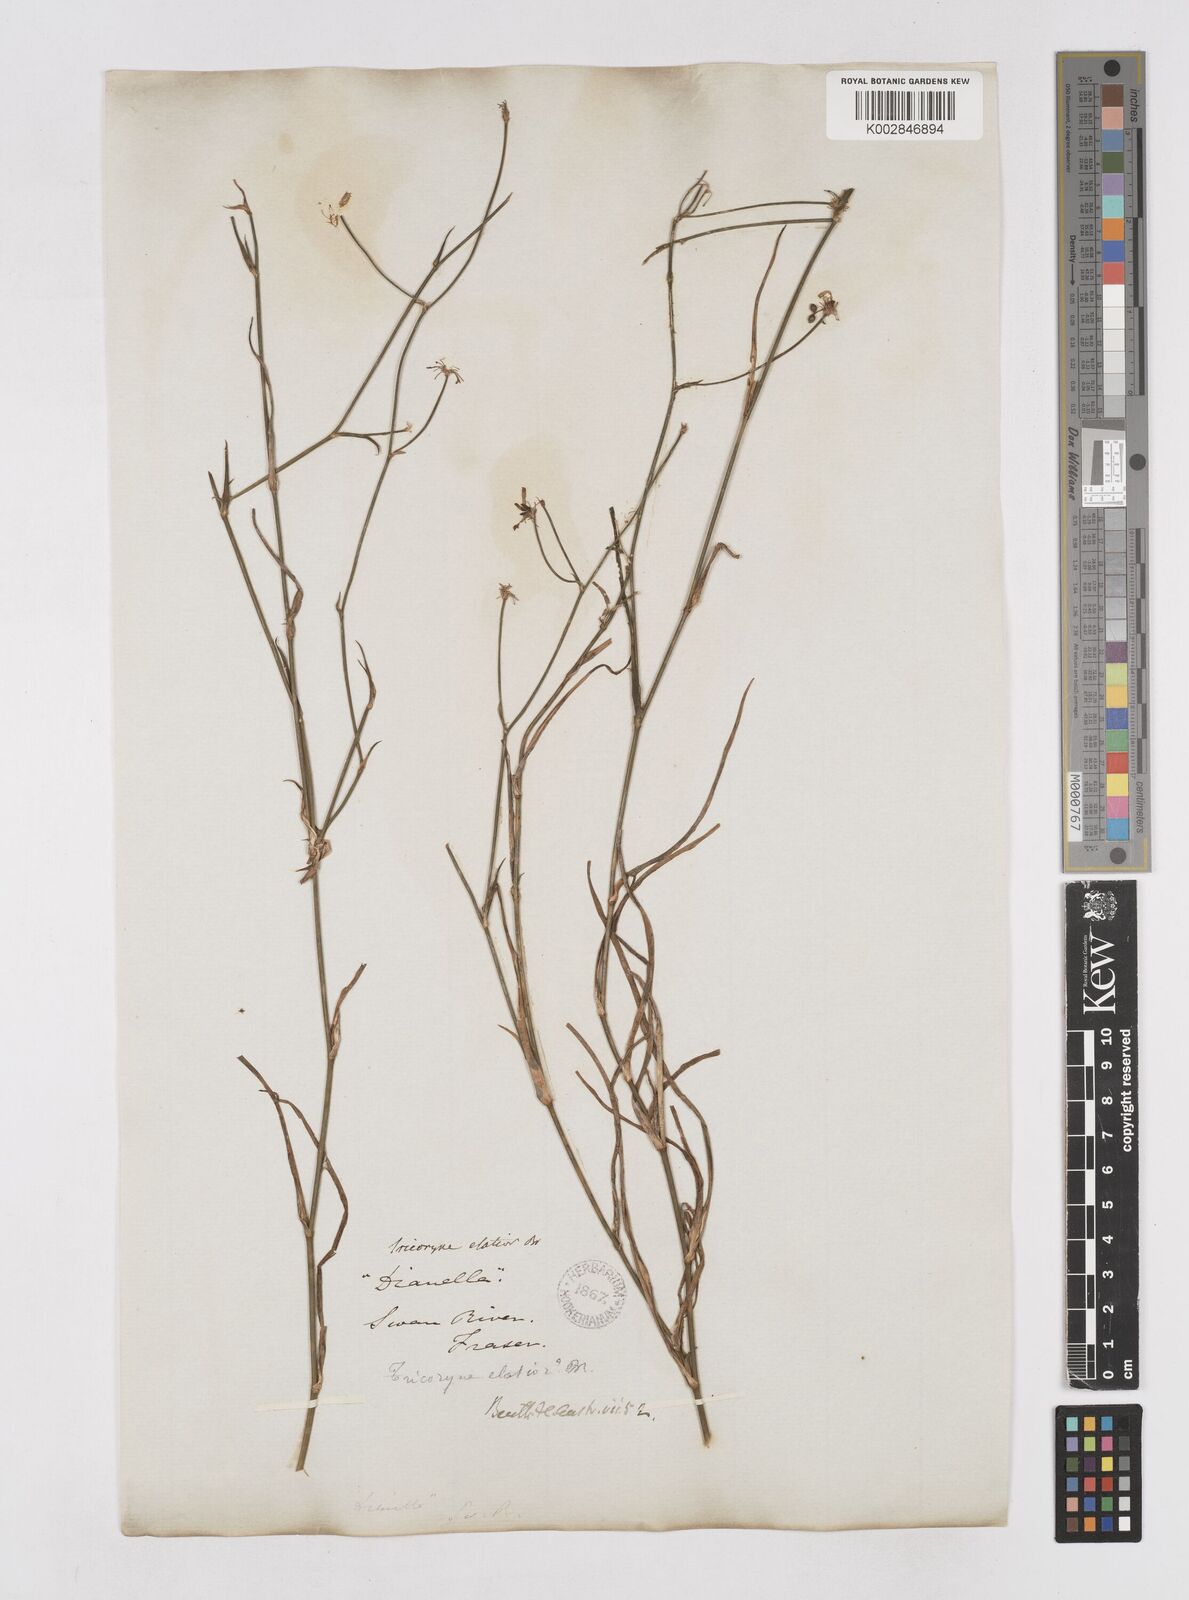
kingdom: Plantae
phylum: Tracheophyta
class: Liliopsida
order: Asparagales
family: Asphodelaceae
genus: Tricoryne
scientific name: Tricoryne elatior
